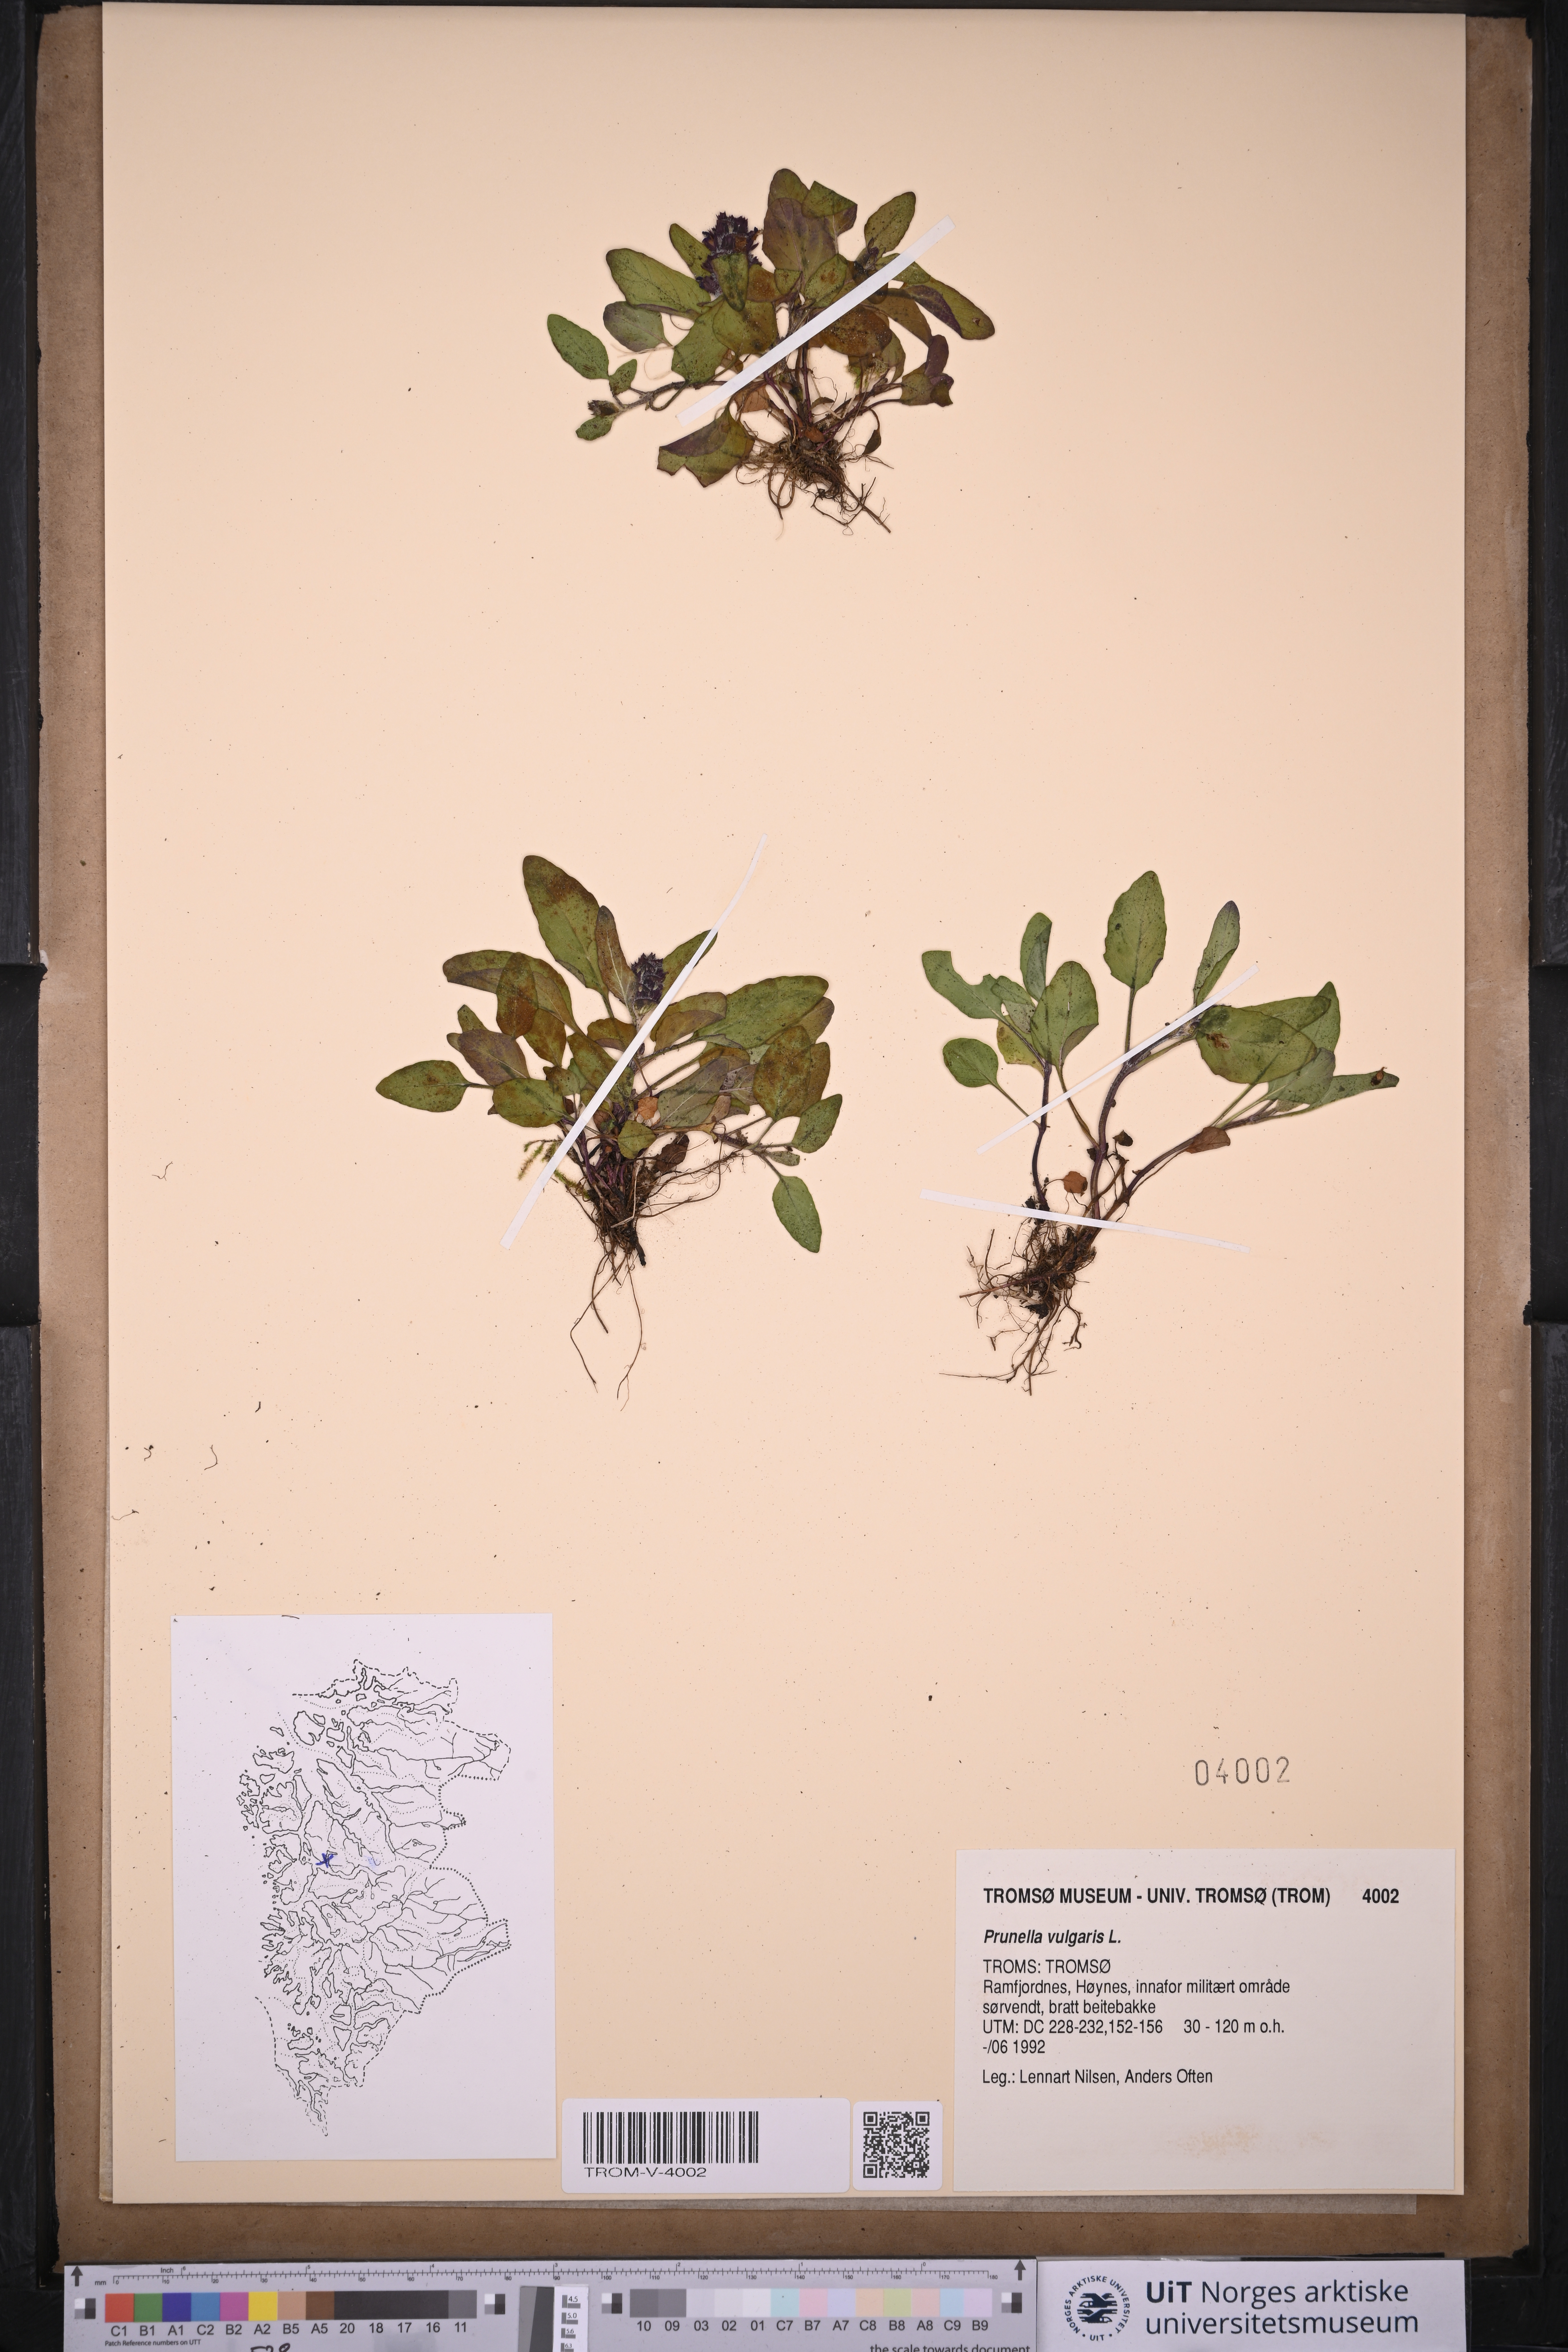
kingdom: Plantae
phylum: Tracheophyta
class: Magnoliopsida
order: Lamiales
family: Lamiaceae
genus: Prunella
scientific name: Prunella vulgaris
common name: Heal-all
